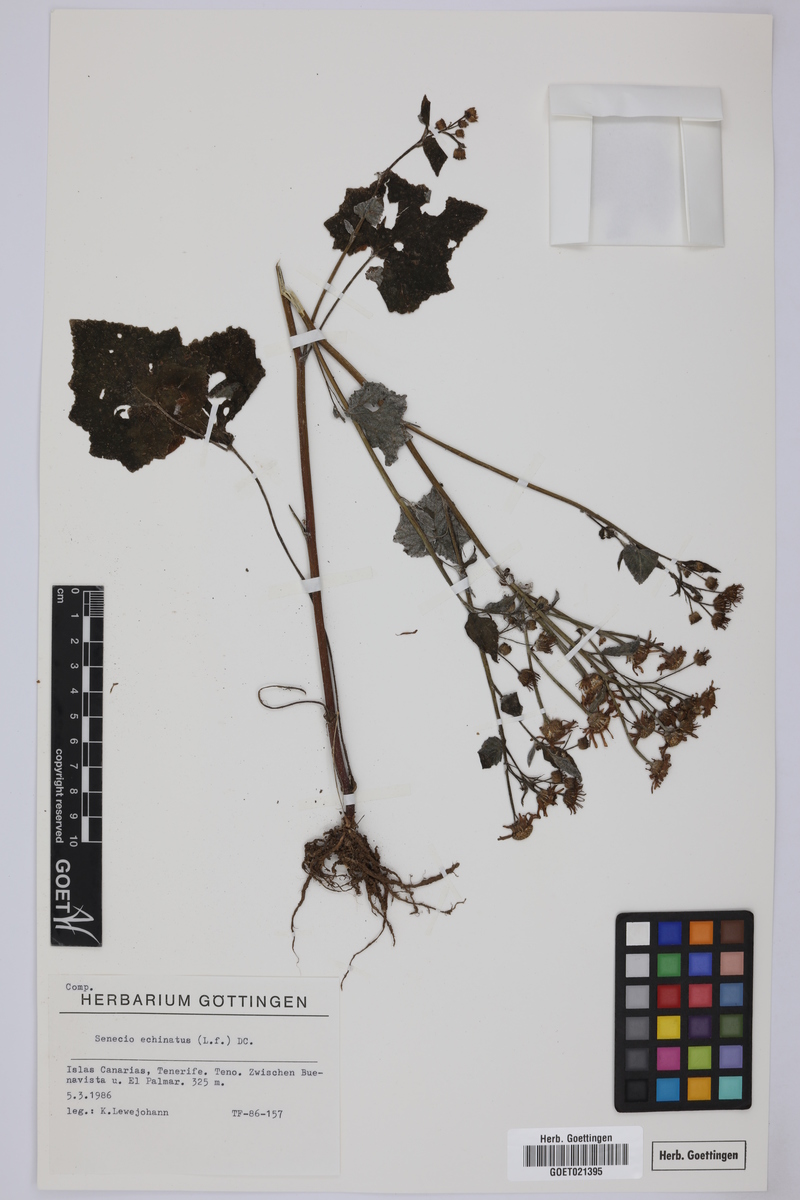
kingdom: Plantae
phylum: Tracheophyta
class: Magnoliopsida
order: Asterales
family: Asteraceae
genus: Pericallis
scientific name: Pericallis echinata
